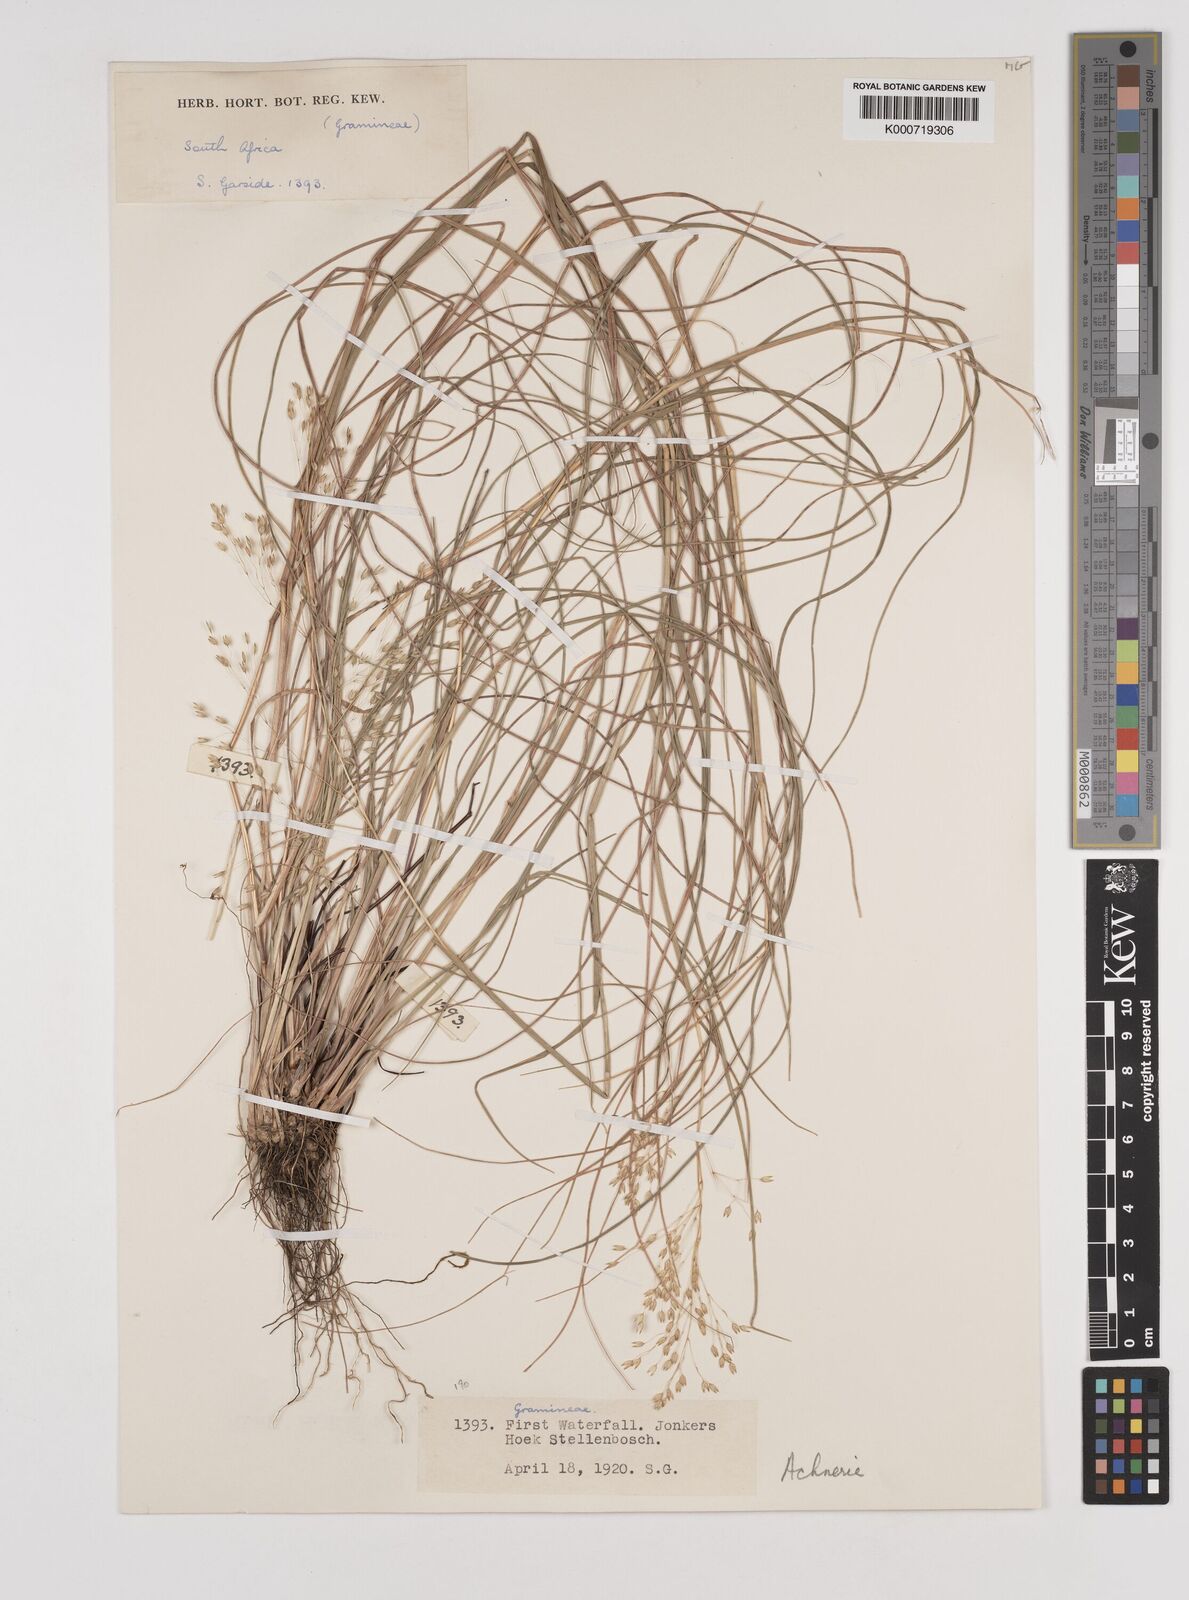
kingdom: Plantae
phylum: Tracheophyta
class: Liliopsida
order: Poales
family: Poaceae
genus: Pentameris
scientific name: Pentameris ampla
